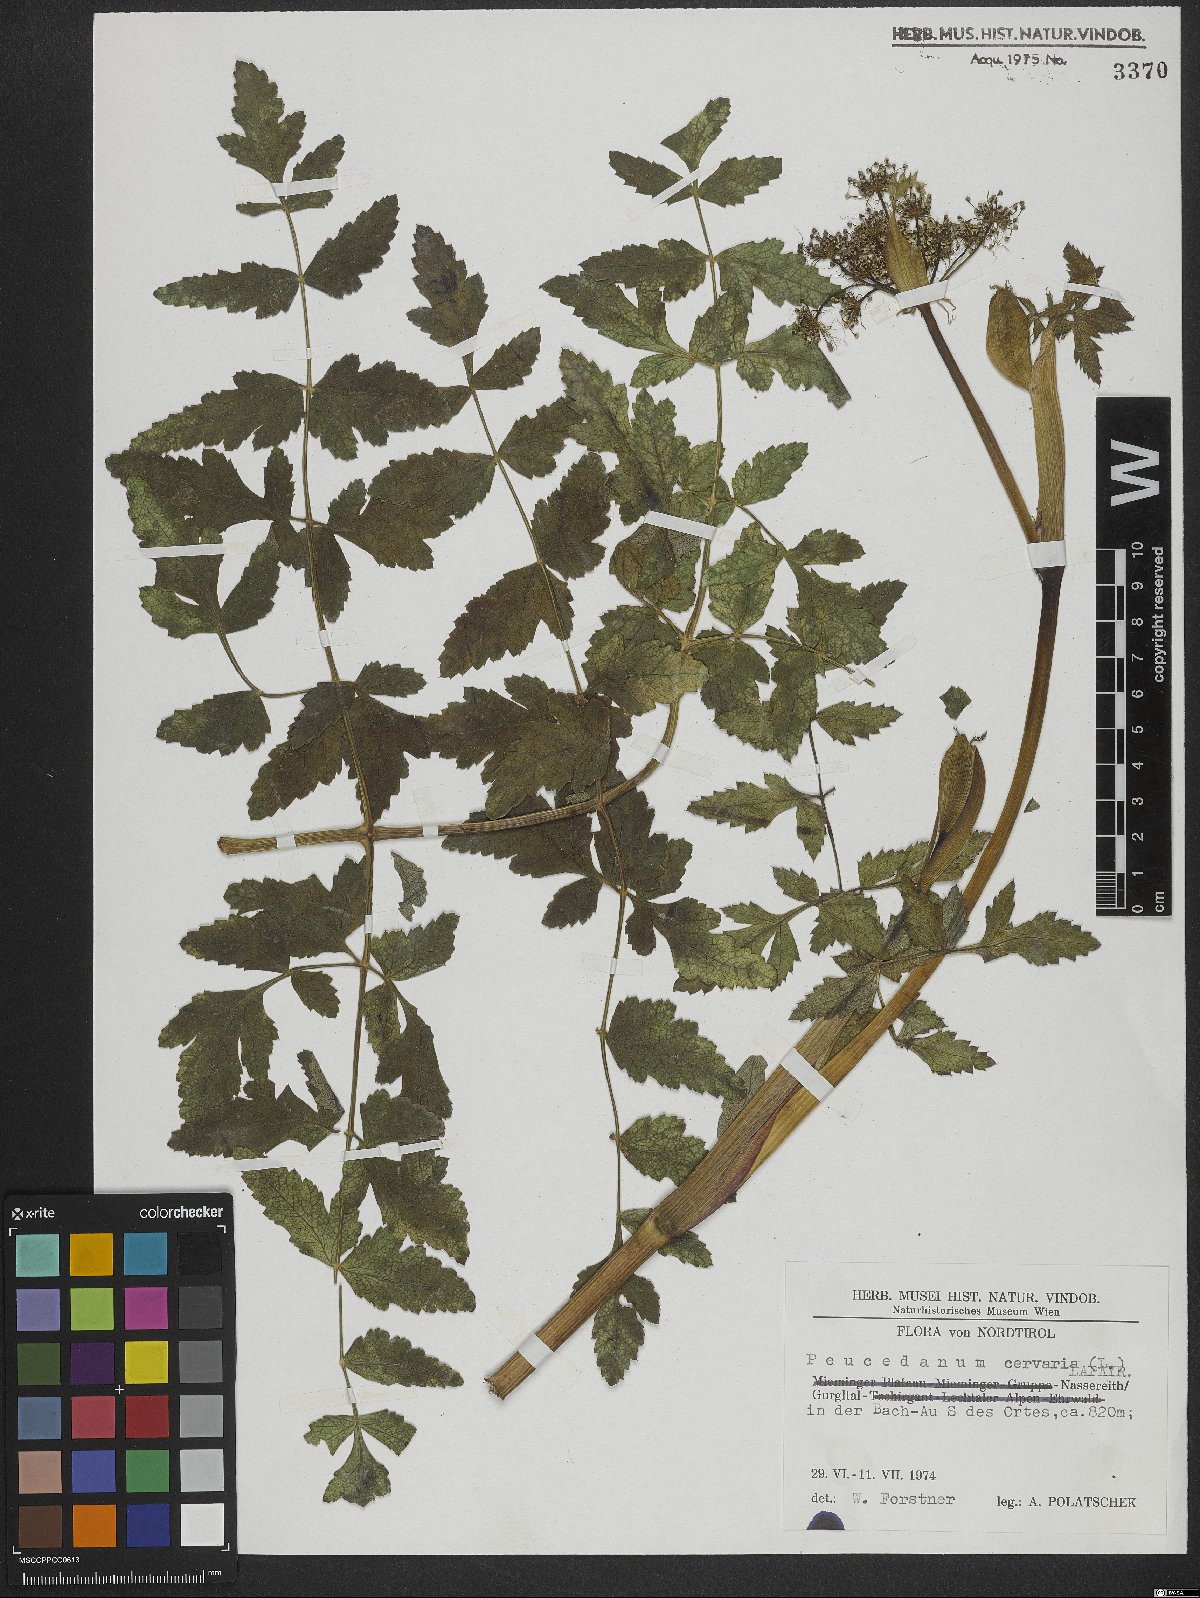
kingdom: Plantae
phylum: Tracheophyta
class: Magnoliopsida
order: Apiales
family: Apiaceae
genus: Cervaria
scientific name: Cervaria rivini
